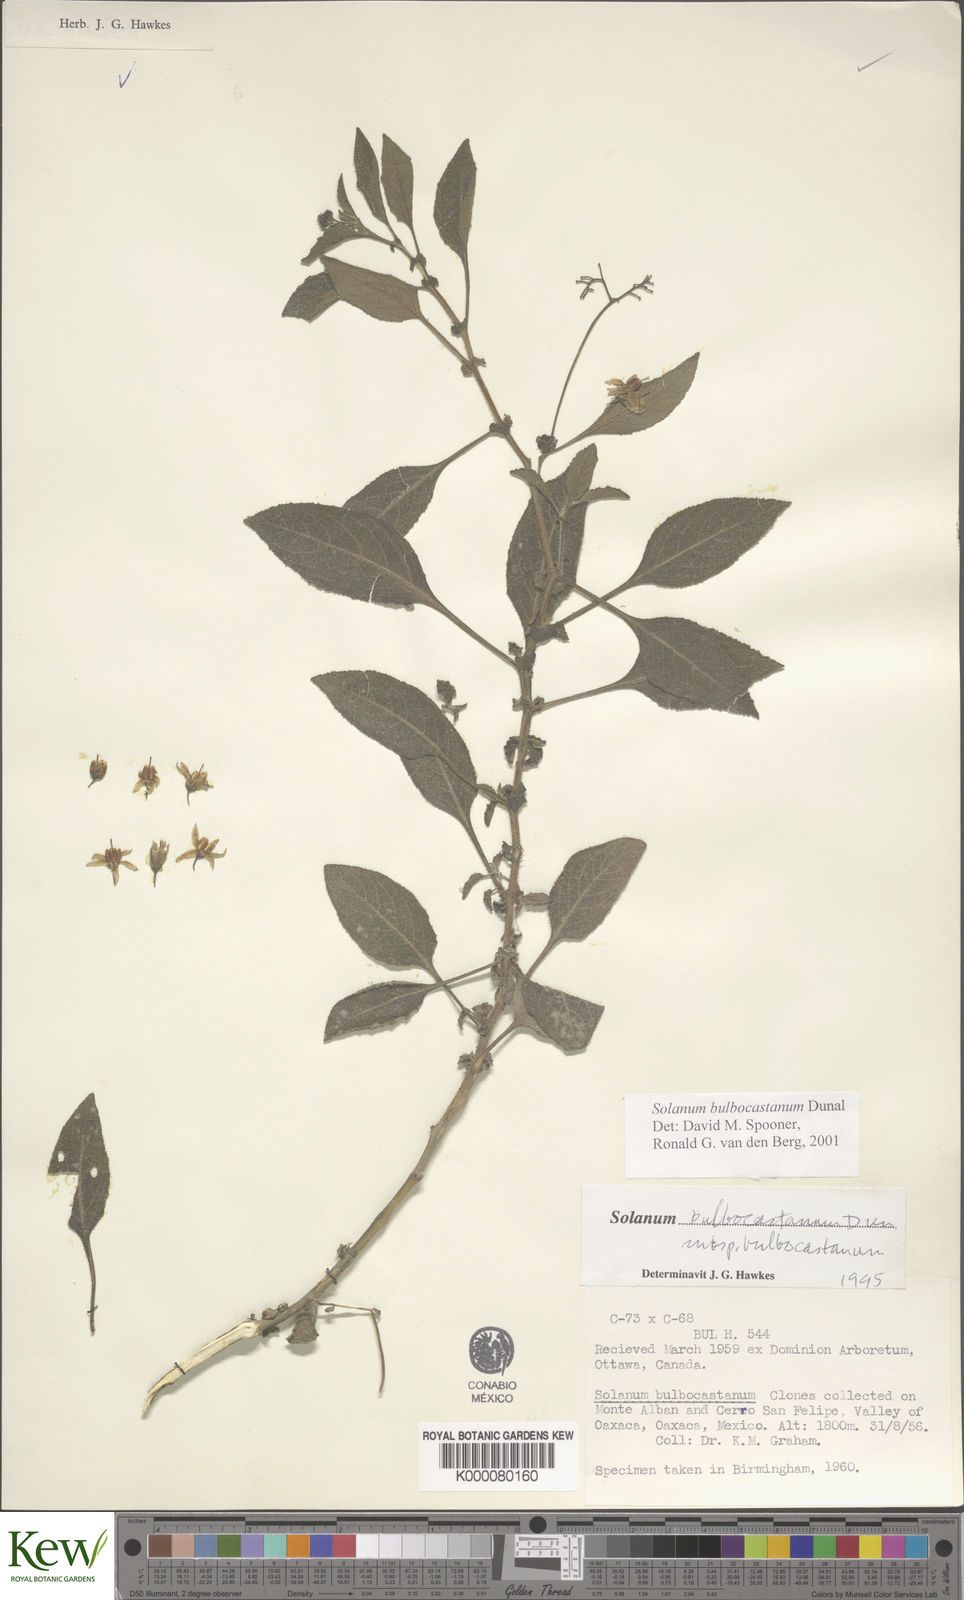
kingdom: Plantae
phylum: Tracheophyta
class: Magnoliopsida
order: Solanales
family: Solanaceae
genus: Solanum
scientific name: Solanum bulbocastanum
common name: Ornamental nightshade
